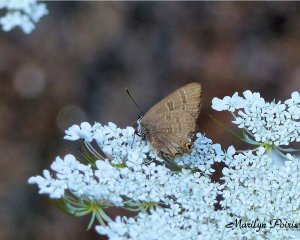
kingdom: Animalia
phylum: Arthropoda
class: Insecta
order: Lepidoptera
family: Lycaenidae
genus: Satyrium
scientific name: Satyrium calanus
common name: Banded Hairstreak
